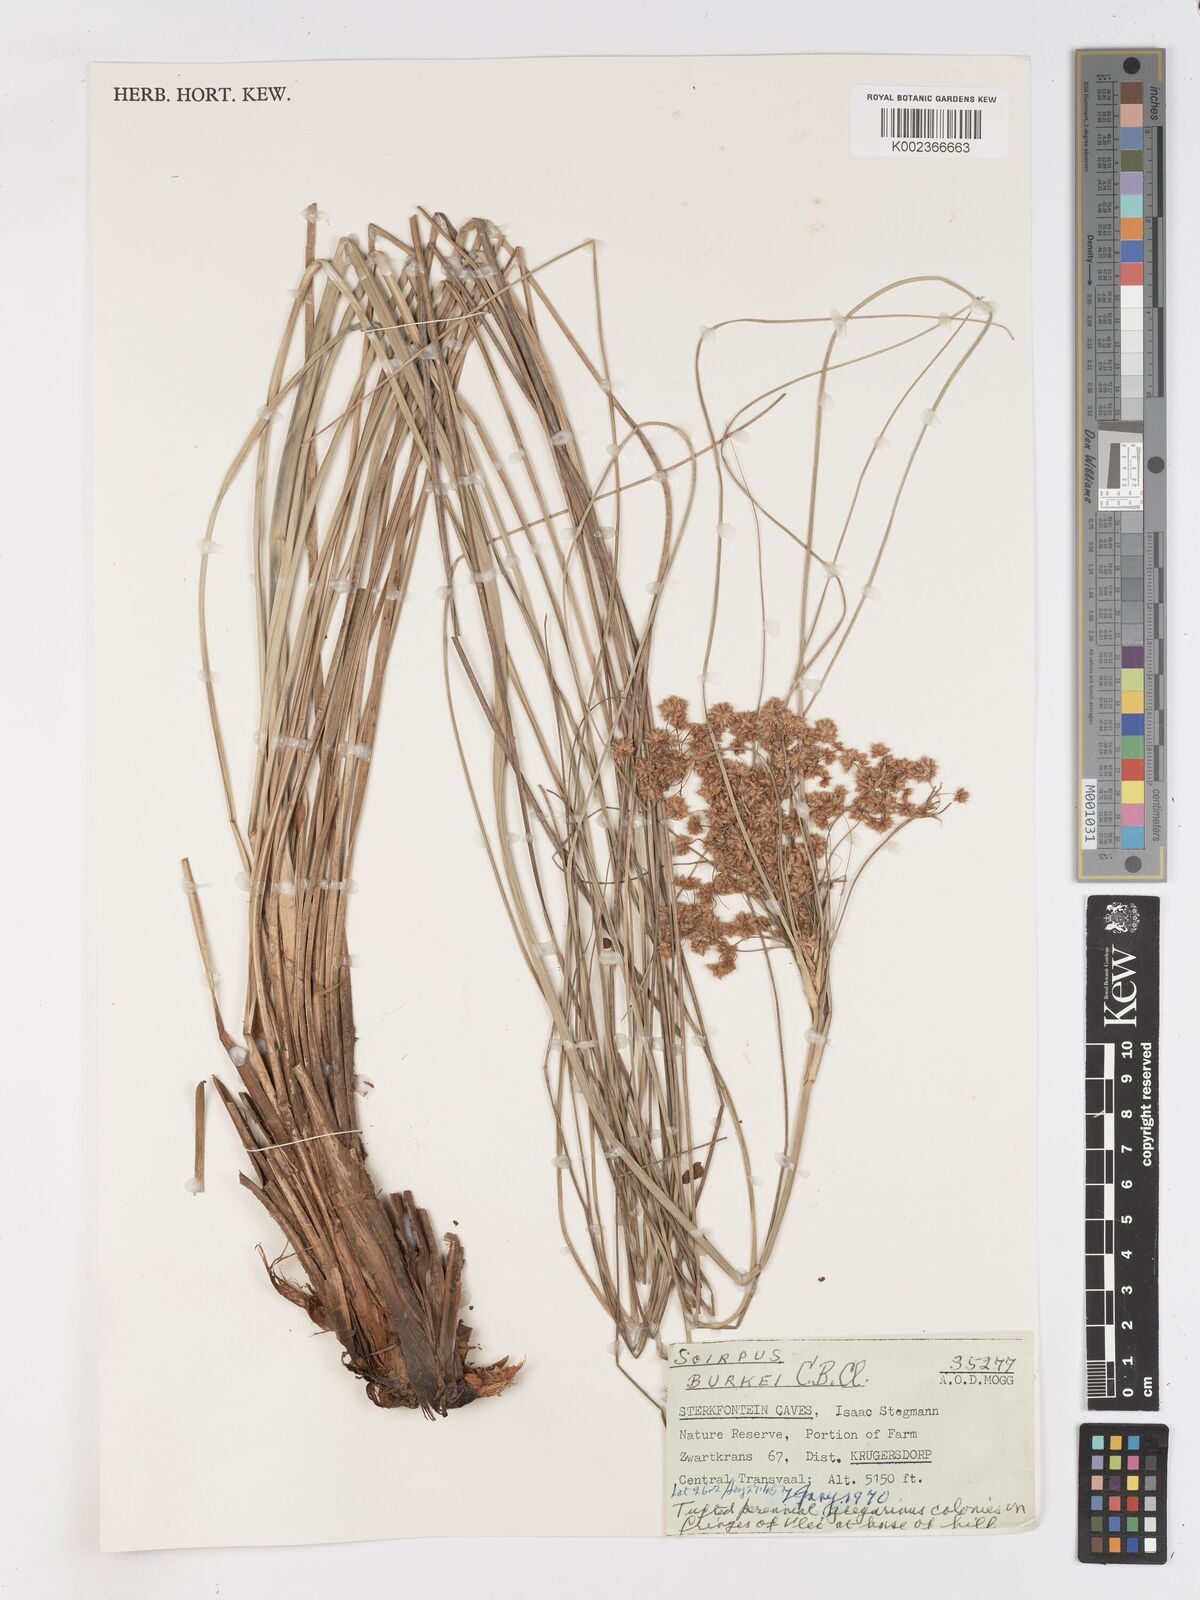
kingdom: Plantae
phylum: Tracheophyta
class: Liliopsida
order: Poales
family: Cyperaceae
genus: Scirpoides
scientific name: Scirpoides burkei
